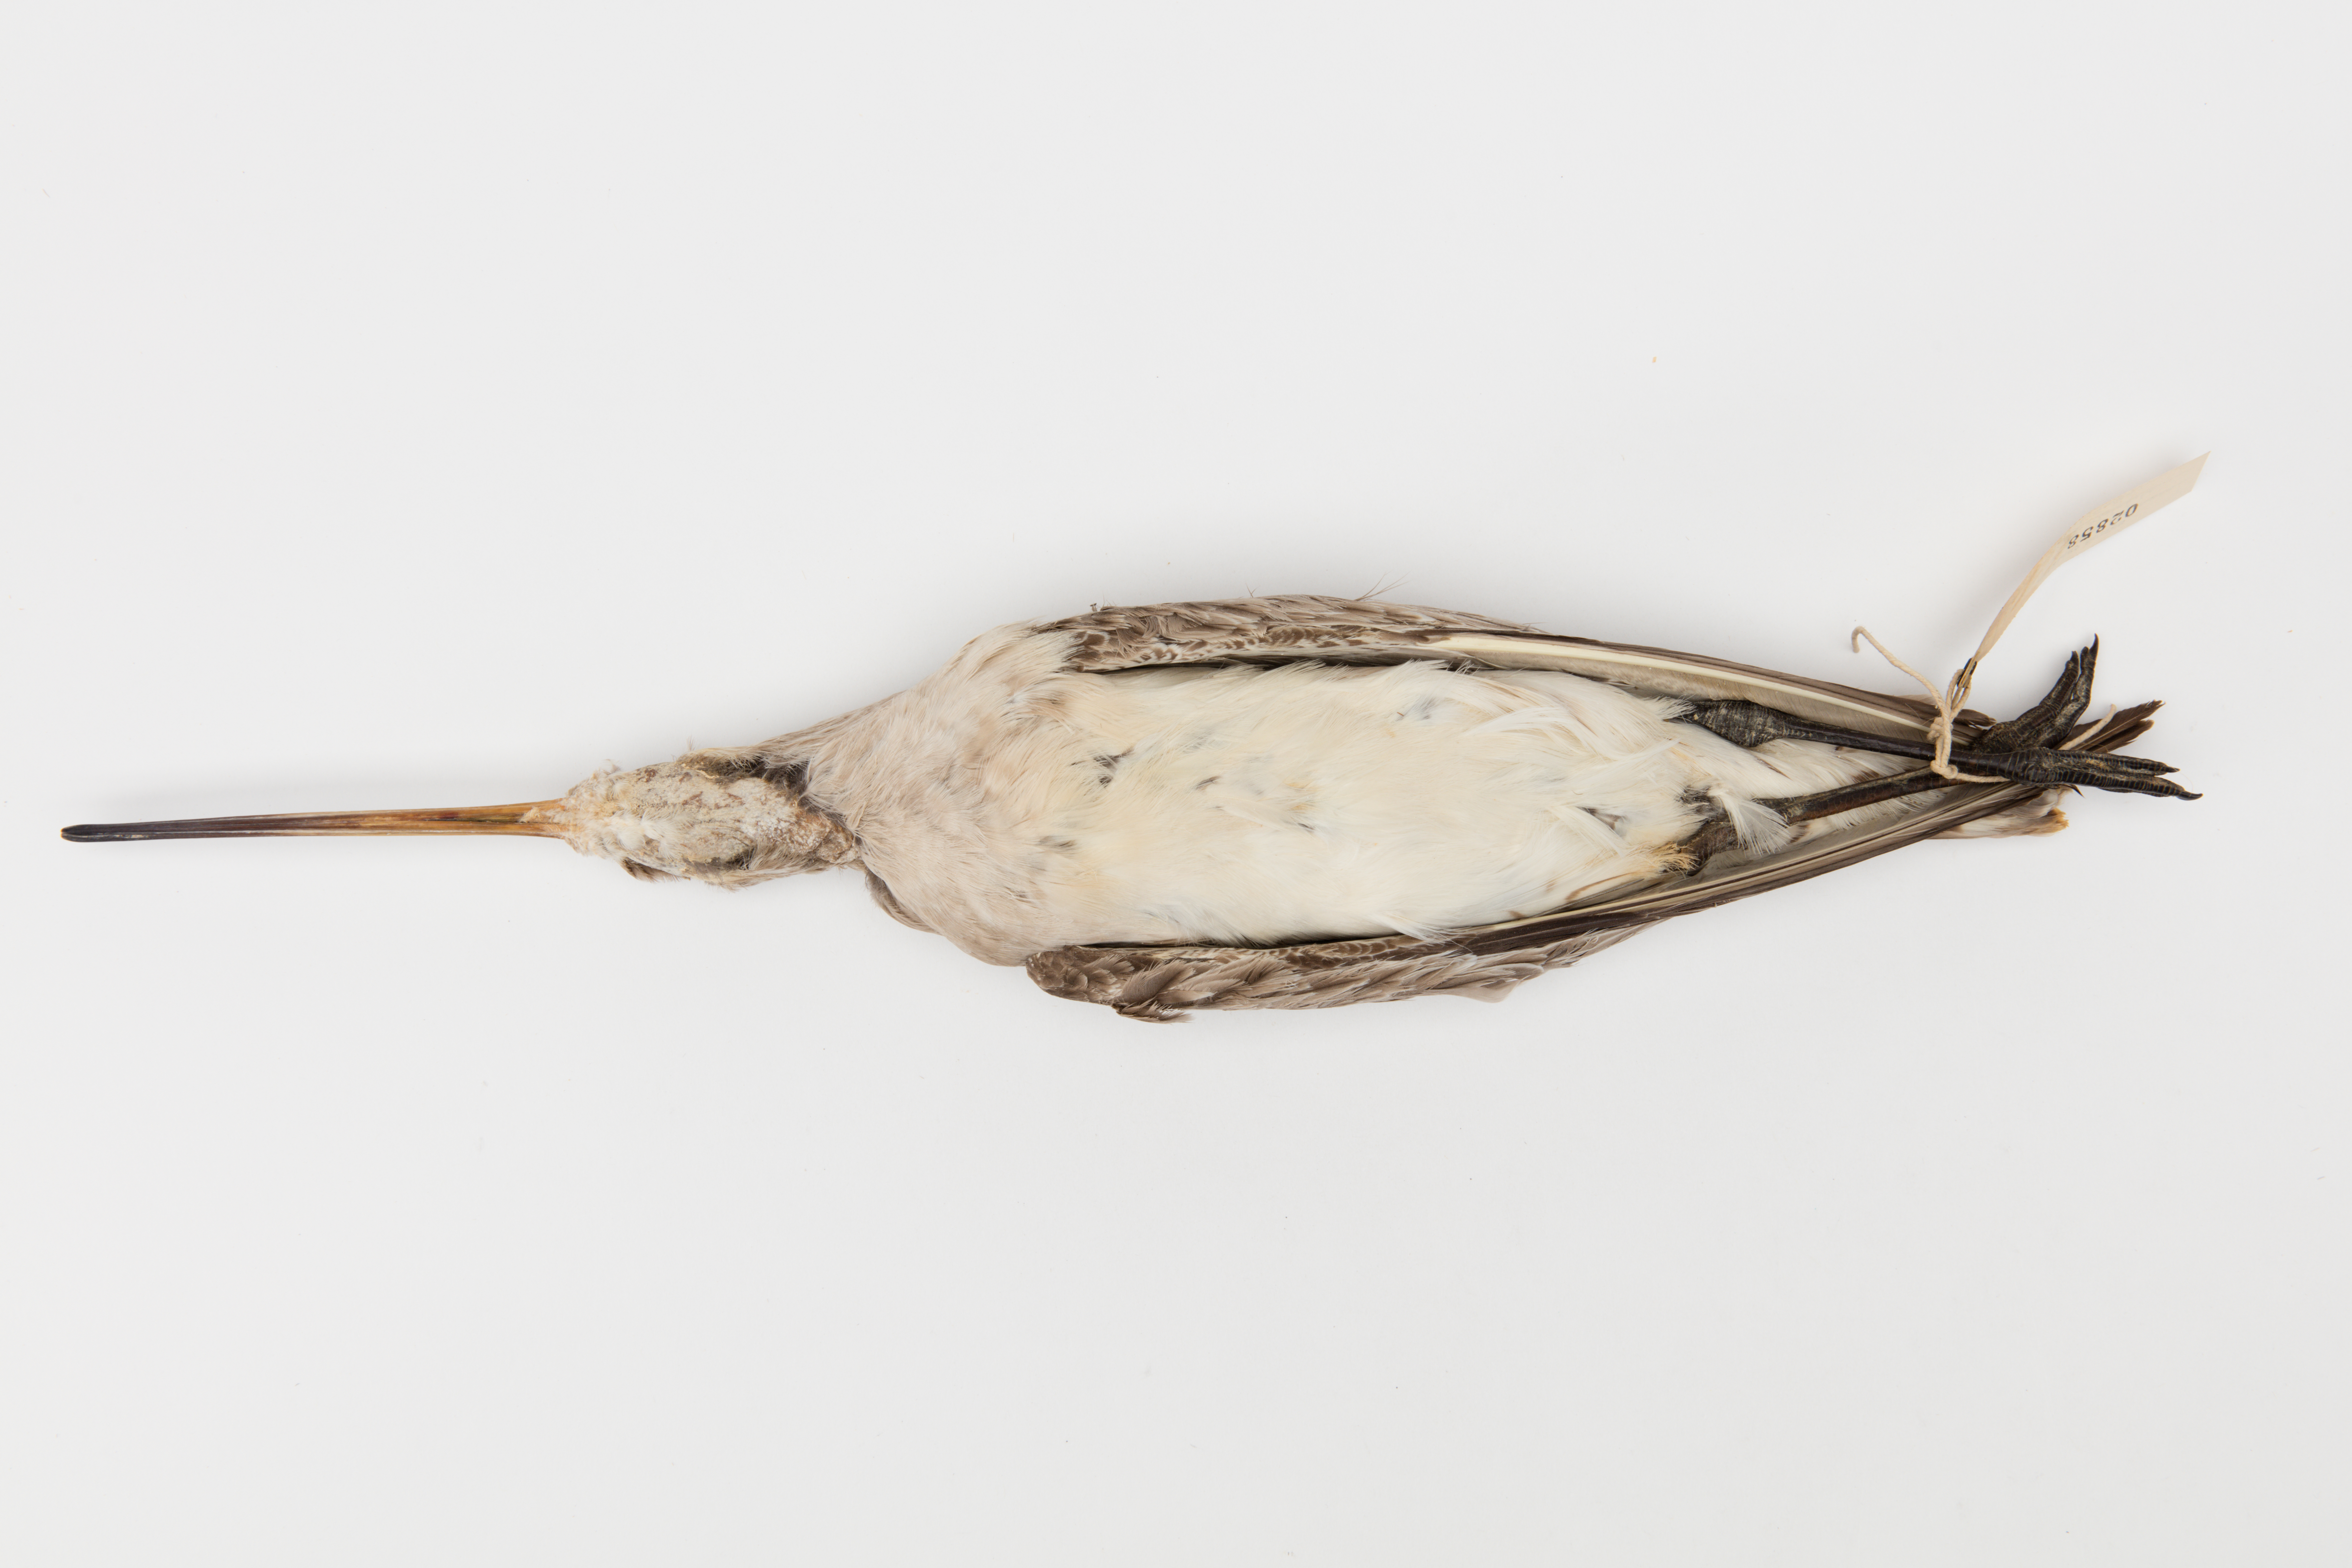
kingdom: Animalia
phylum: Chordata
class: Aves
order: Charadriiformes
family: Scolopacidae
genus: Limosa
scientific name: Limosa lapponica
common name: Bar-tailed godwit
